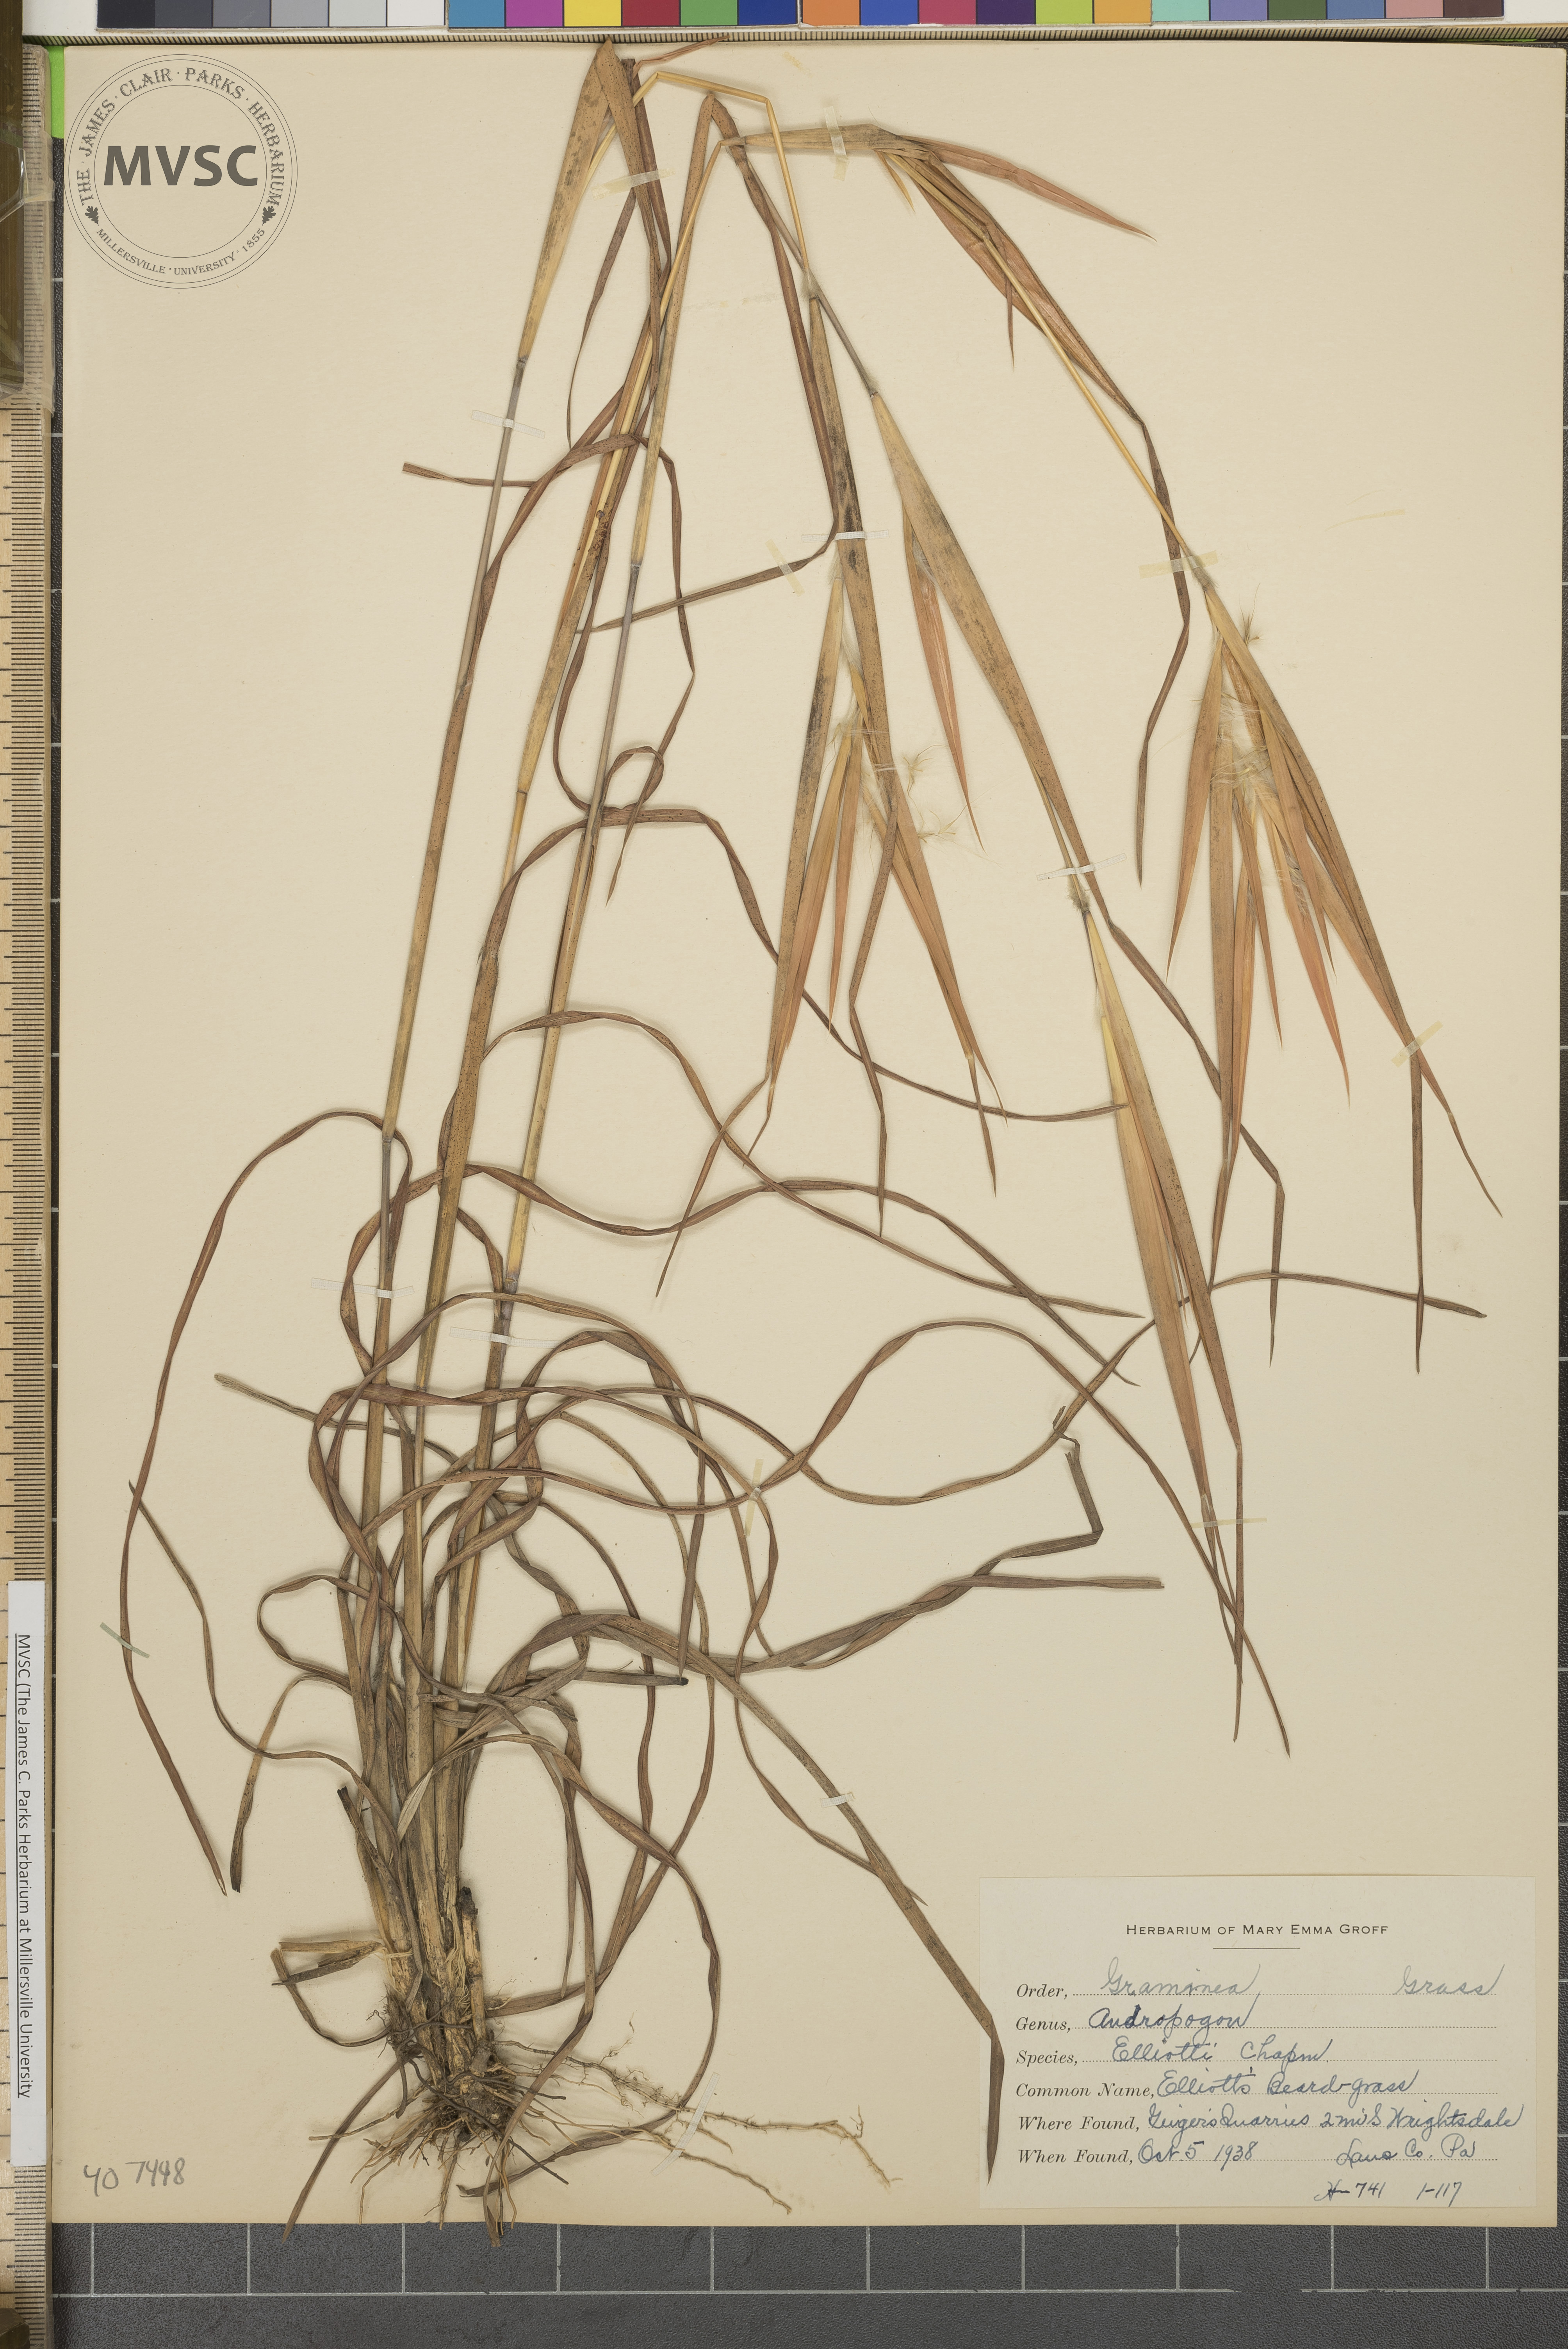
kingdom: Plantae
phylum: Tracheophyta
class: Liliopsida
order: Poales
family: Poaceae
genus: Andropogon
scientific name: Andropogon ternarius
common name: Split bluestem
